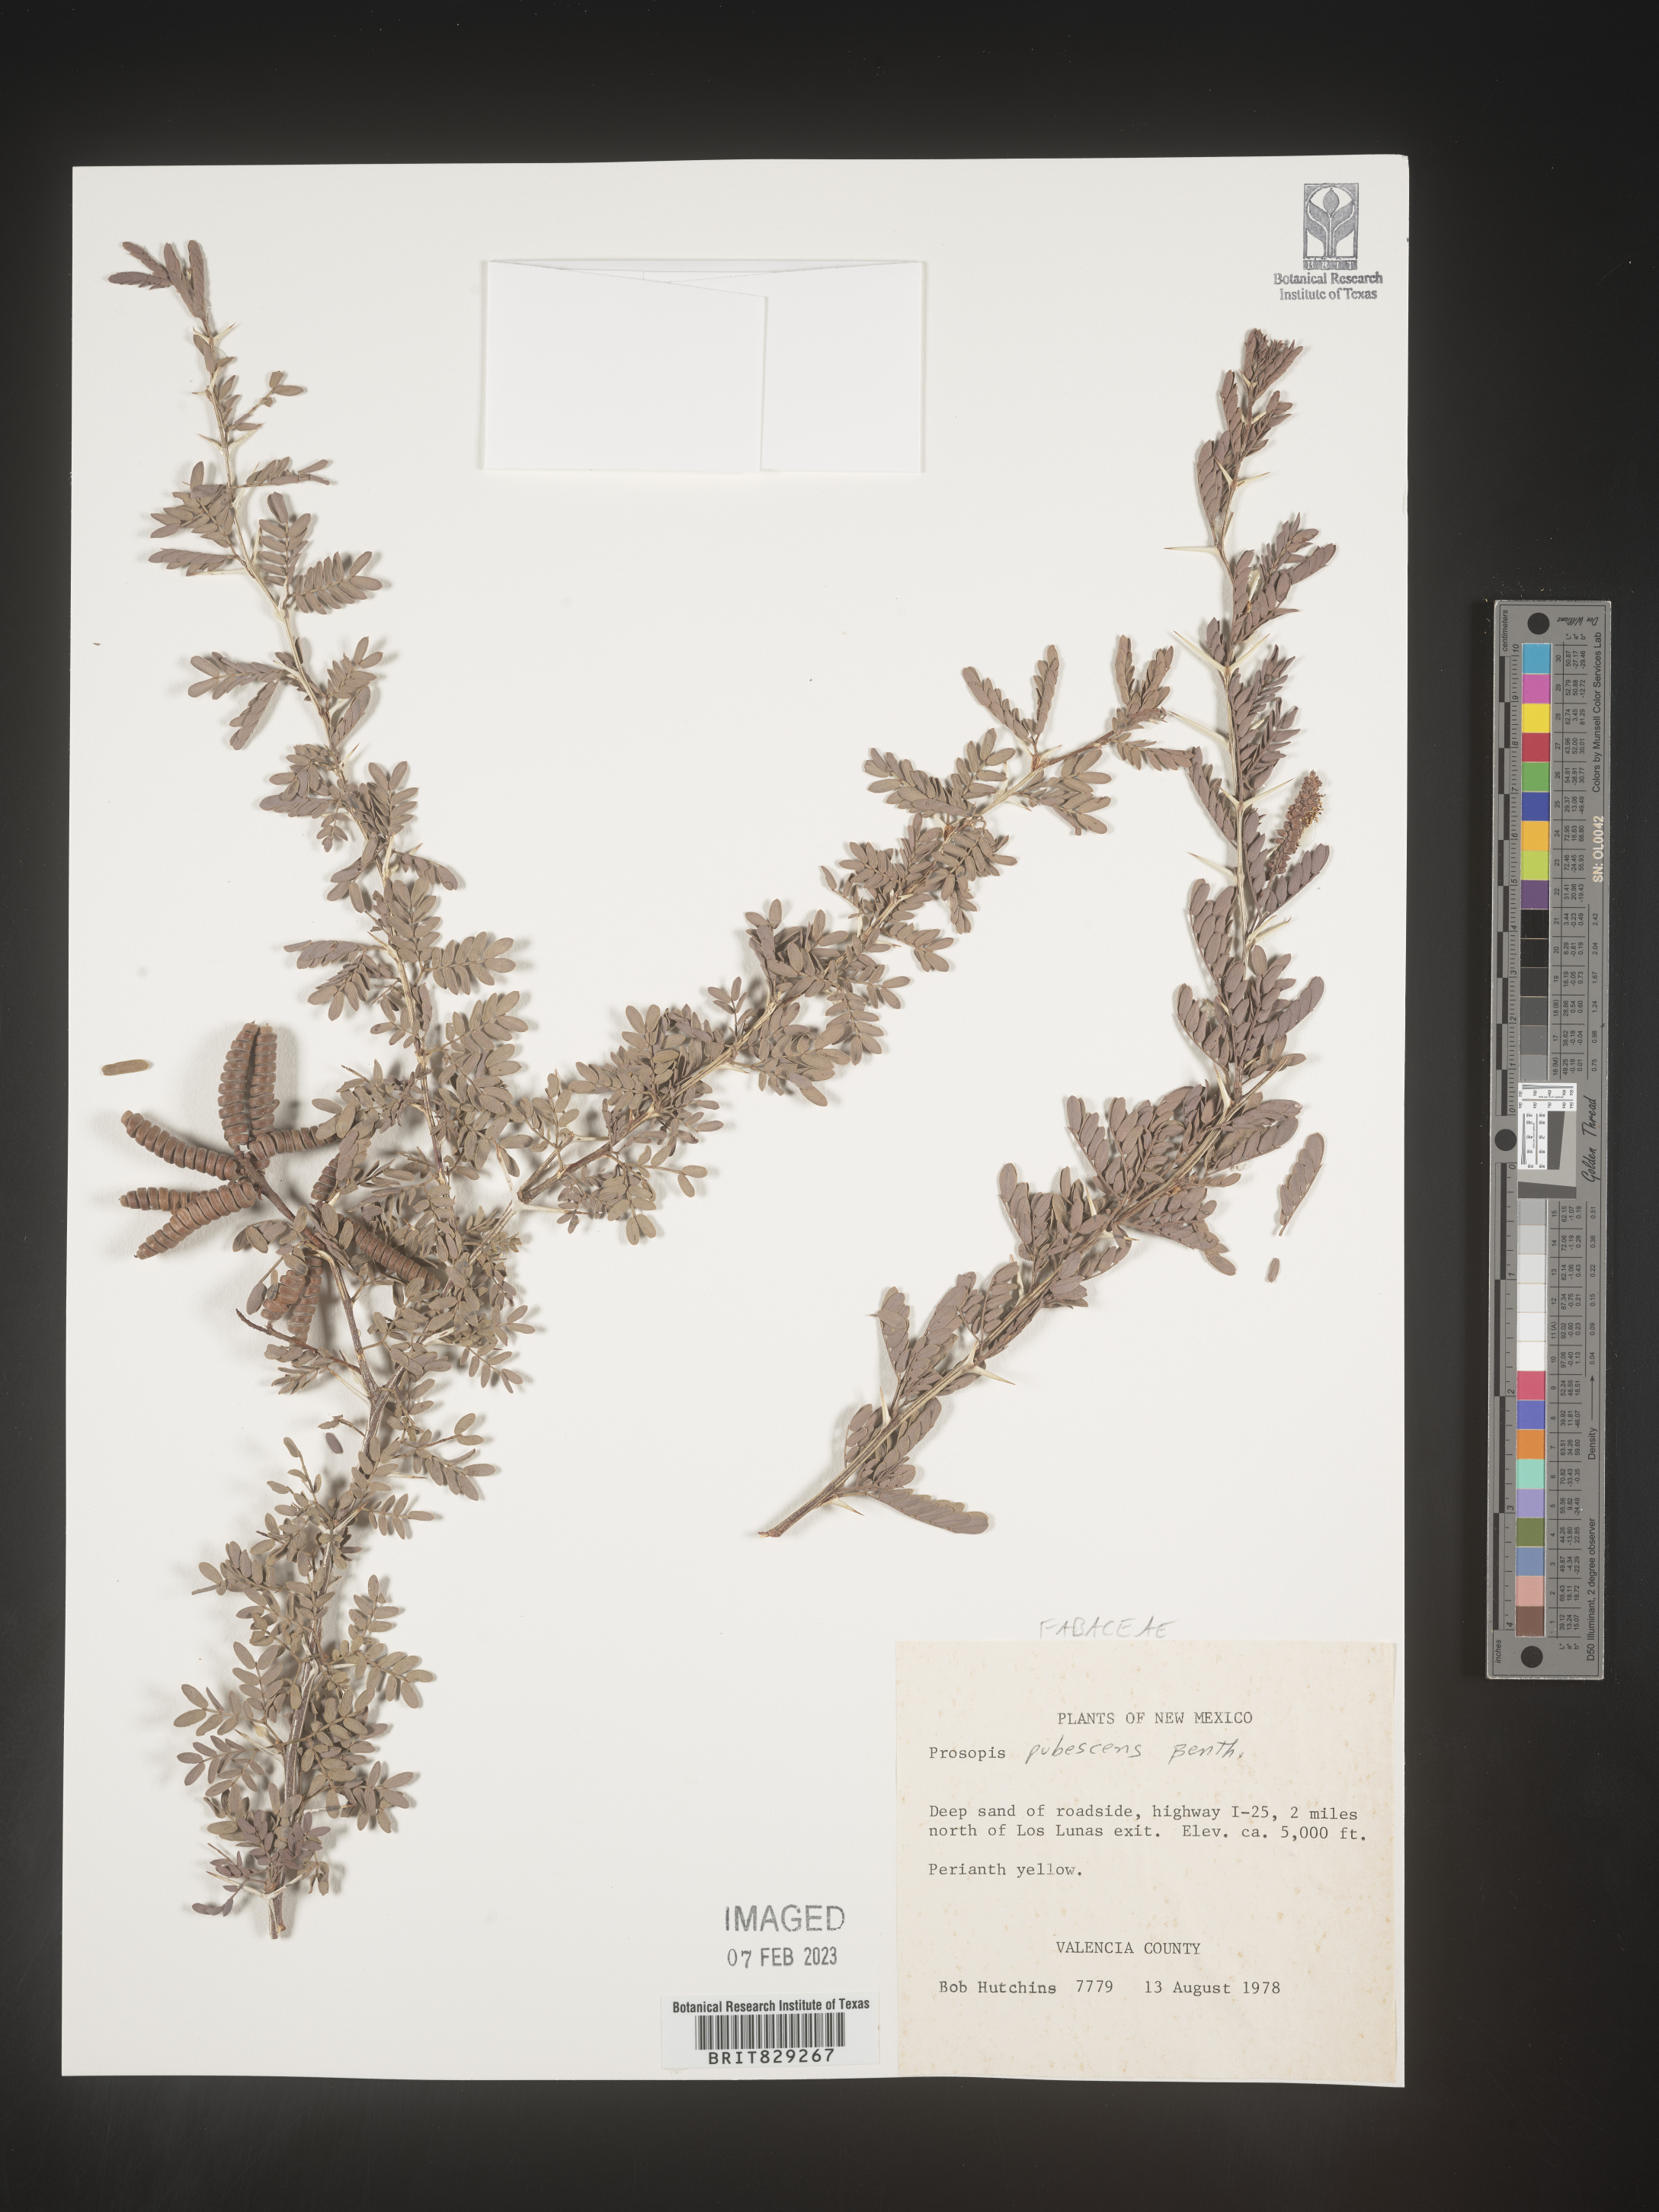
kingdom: Plantae
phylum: Tracheophyta
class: Magnoliopsida
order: Fabales
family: Fabaceae
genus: Prosopis
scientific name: Prosopis
